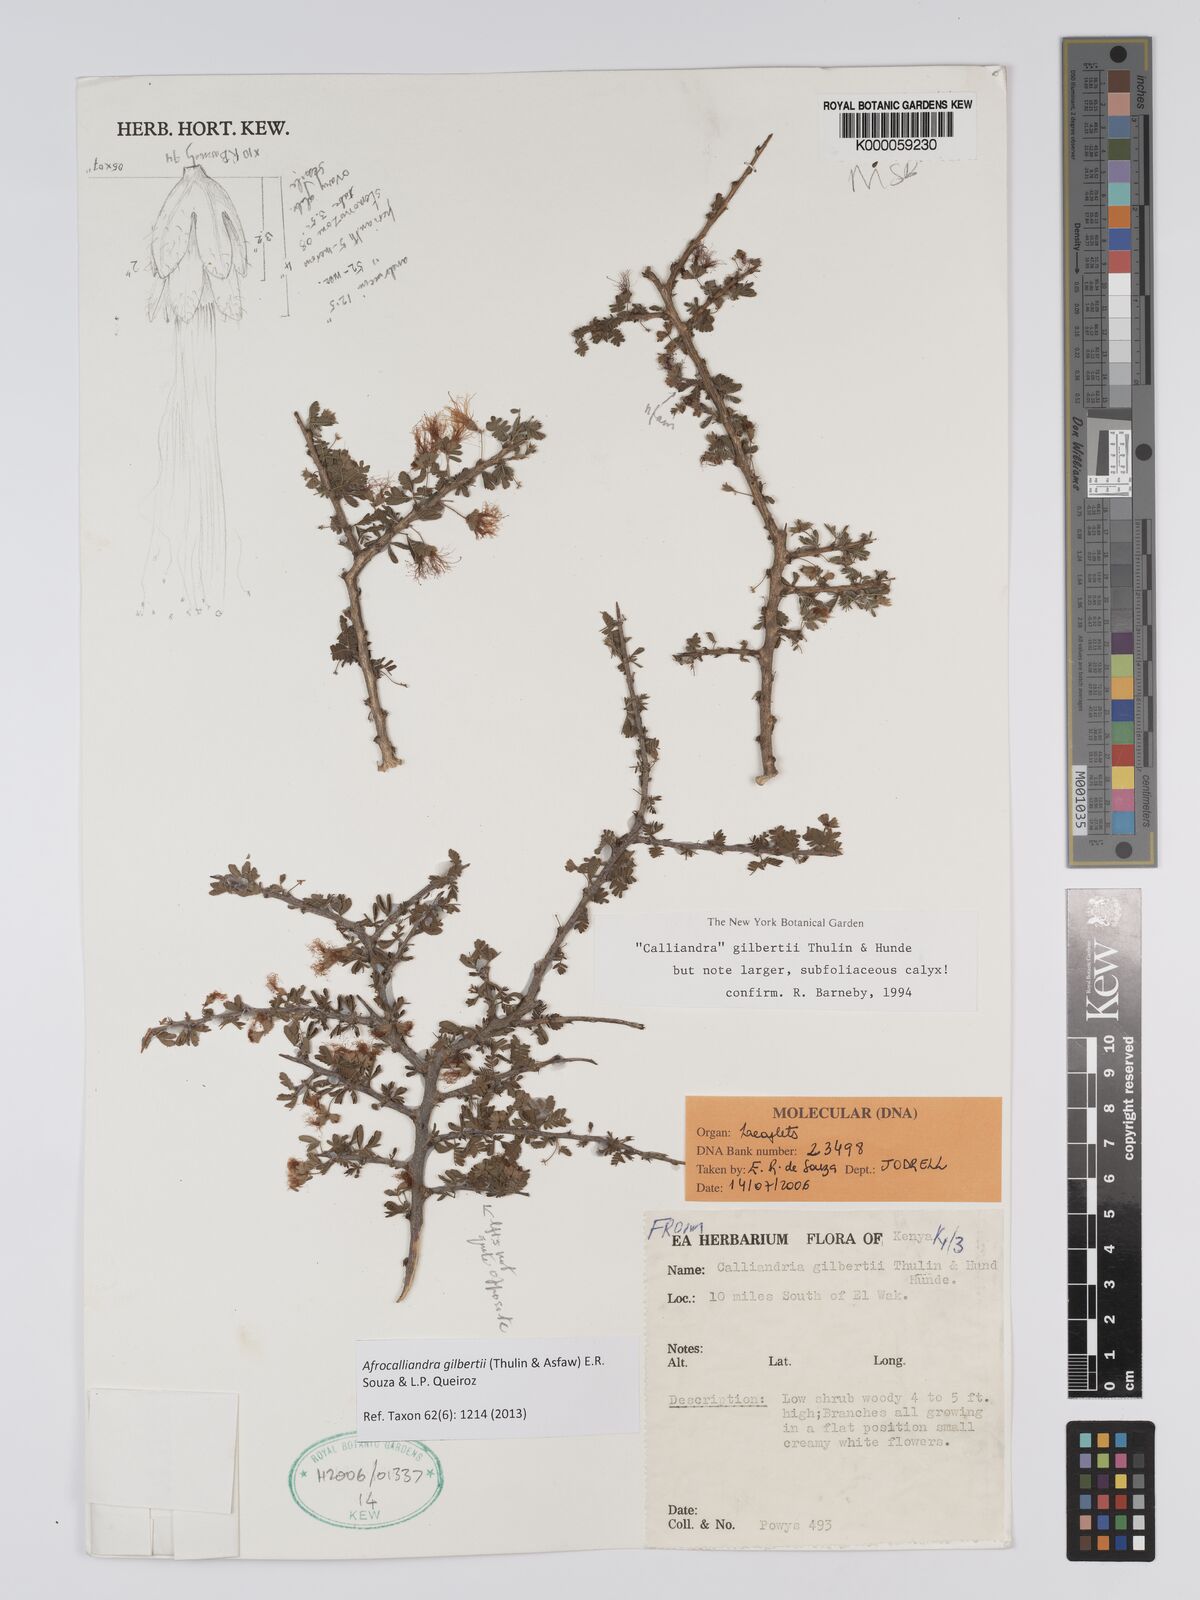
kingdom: Plantae
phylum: Tracheophyta
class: Magnoliopsida
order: Fabales
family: Fabaceae
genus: Afrocalliandra
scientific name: Afrocalliandra gilbertii
